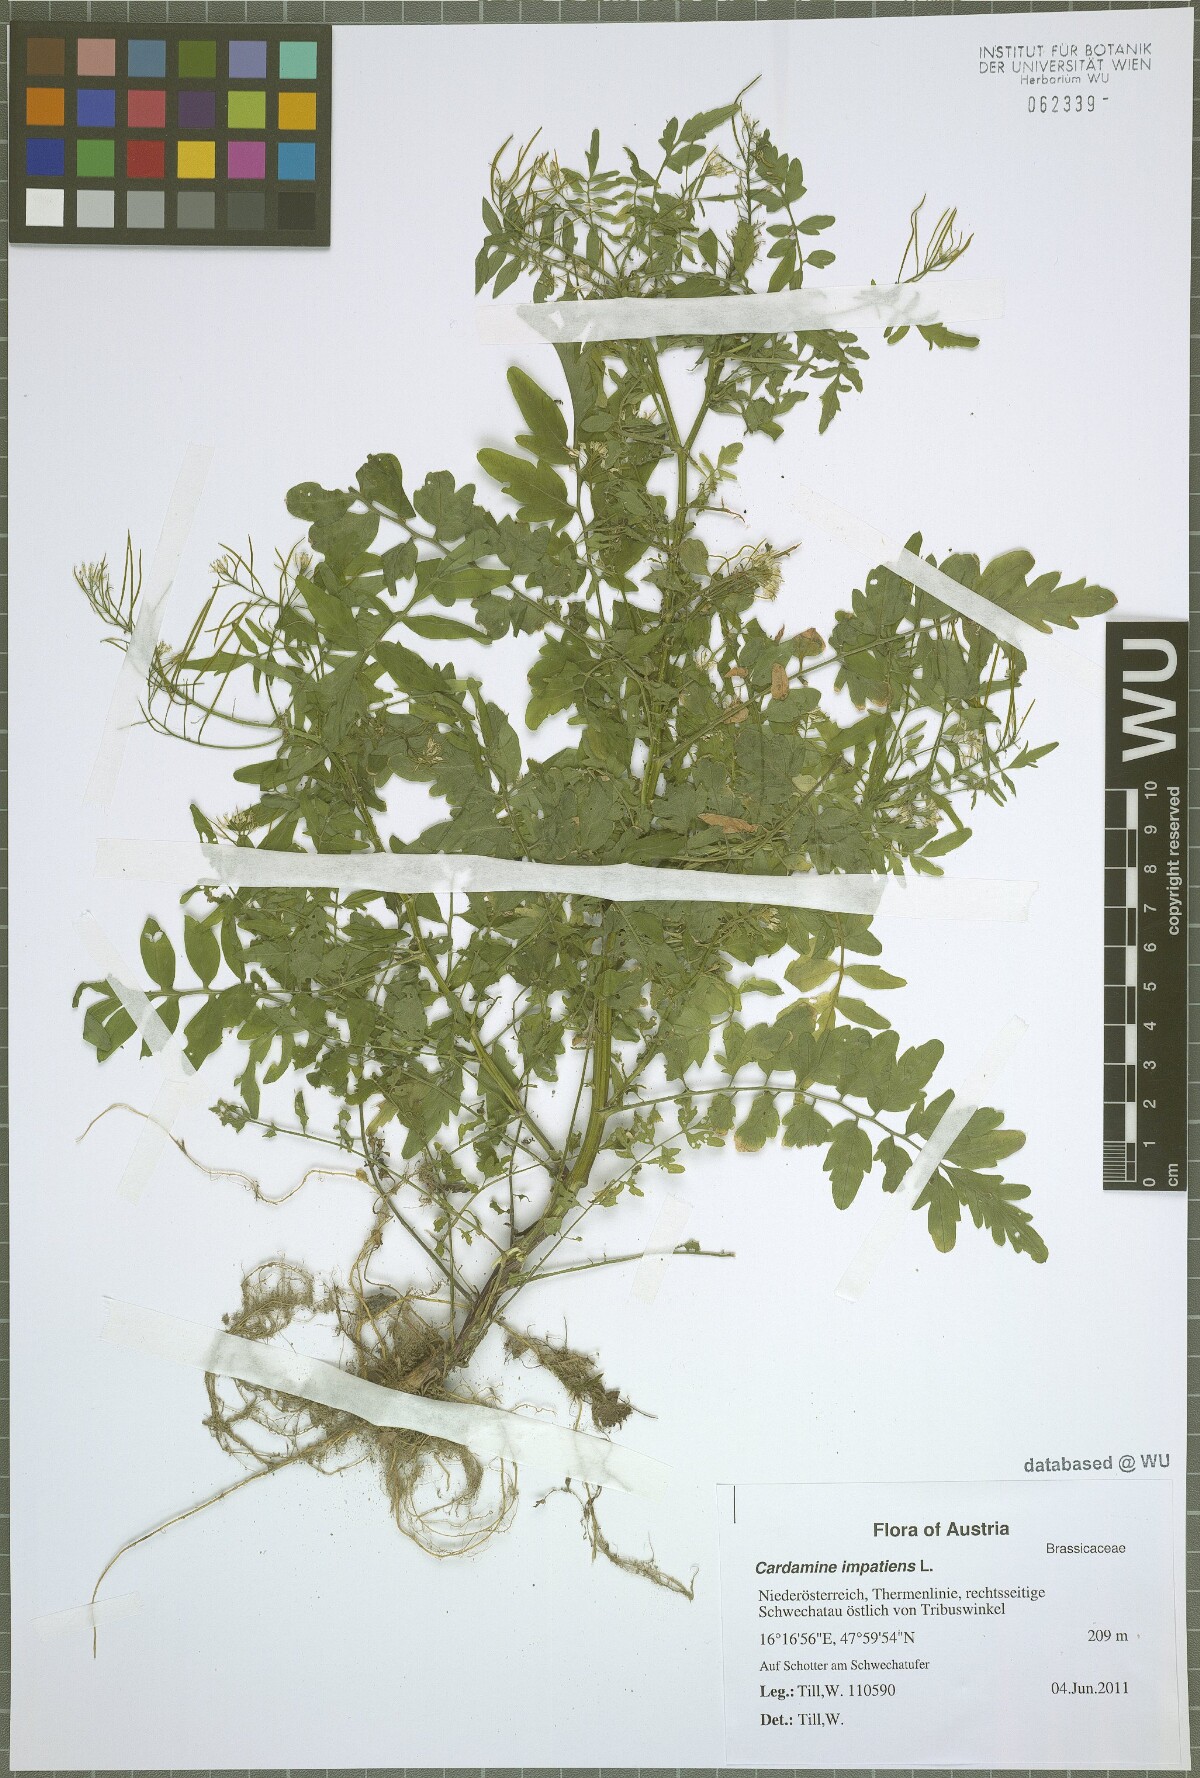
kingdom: Plantae
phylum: Tracheophyta
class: Magnoliopsida
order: Brassicales
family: Brassicaceae
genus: Cardamine
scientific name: Cardamine impatiens
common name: Narrow-leaved bitter-cress
